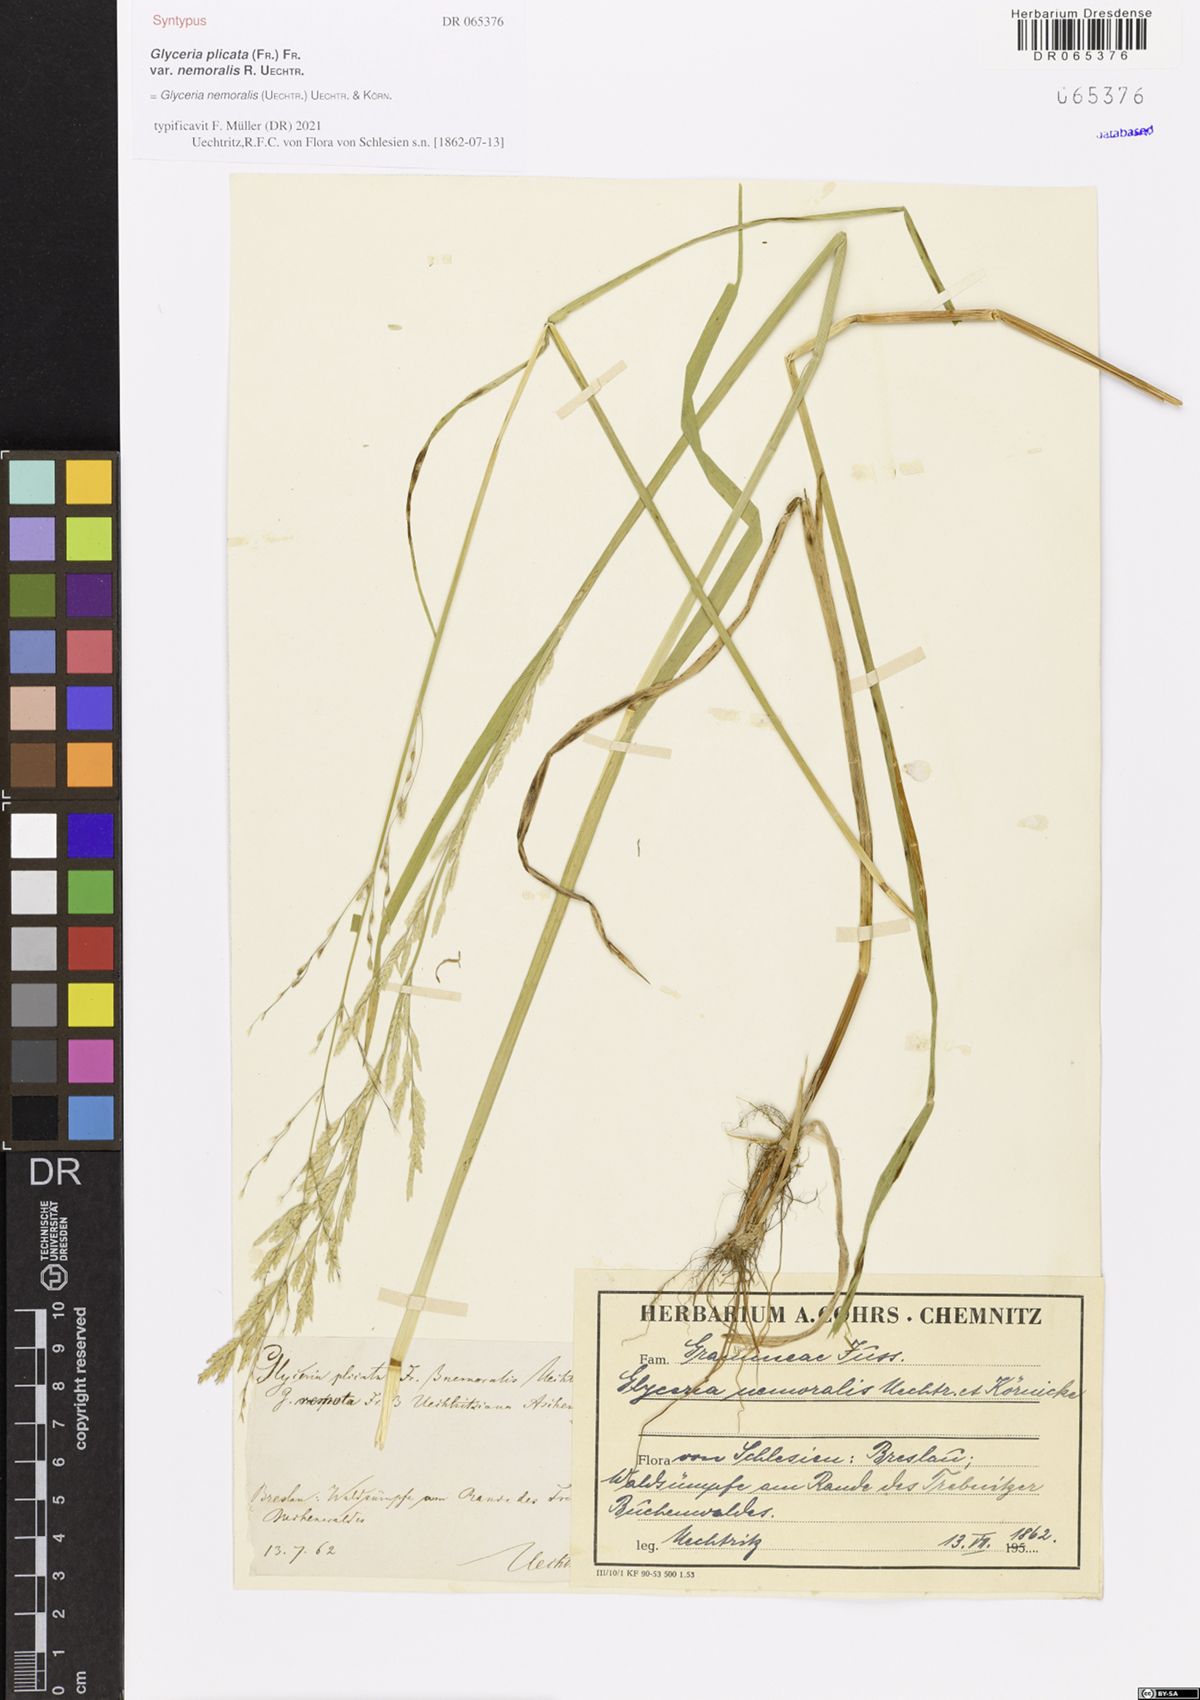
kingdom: Plantae
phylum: Tracheophyta
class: Liliopsida
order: Poales
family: Poaceae
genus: Glyceria
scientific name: Glyceria nemoralis
